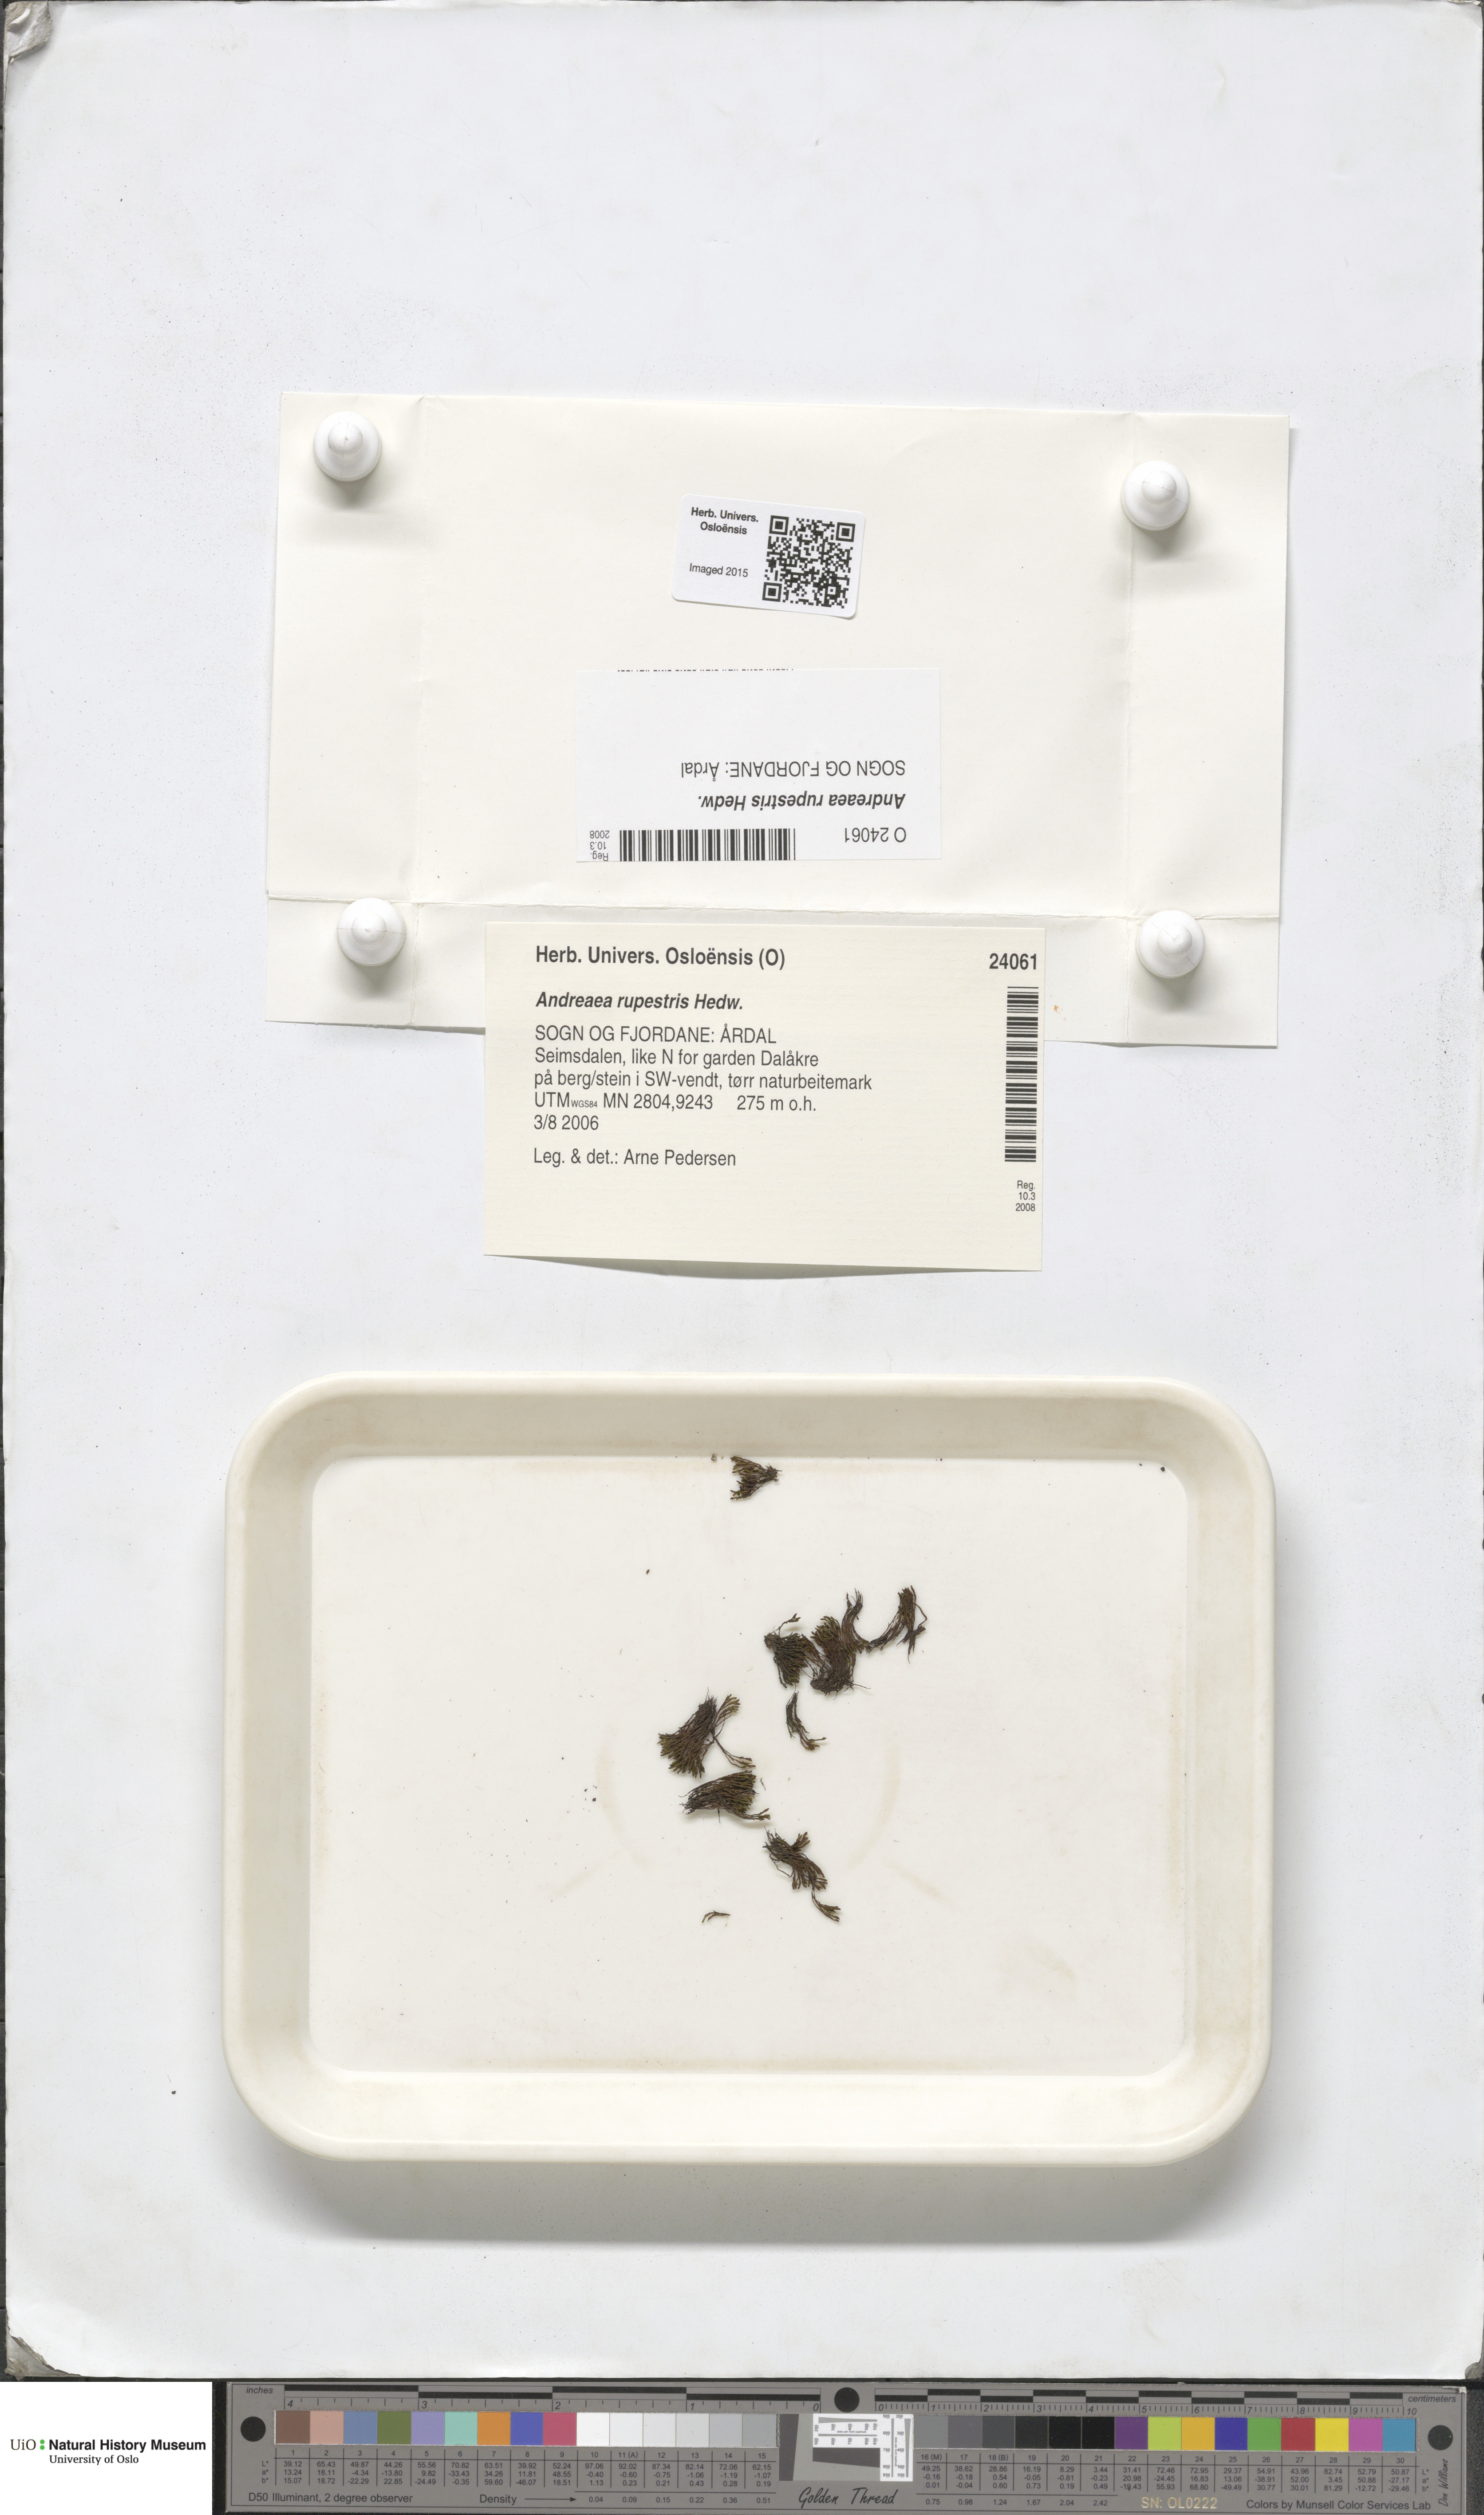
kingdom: Plantae
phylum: Bryophyta
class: Andreaeopsida
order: Andreaeales
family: Andreaeaceae
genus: Andreaea
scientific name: Andreaea rupestris
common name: Black rock moss
